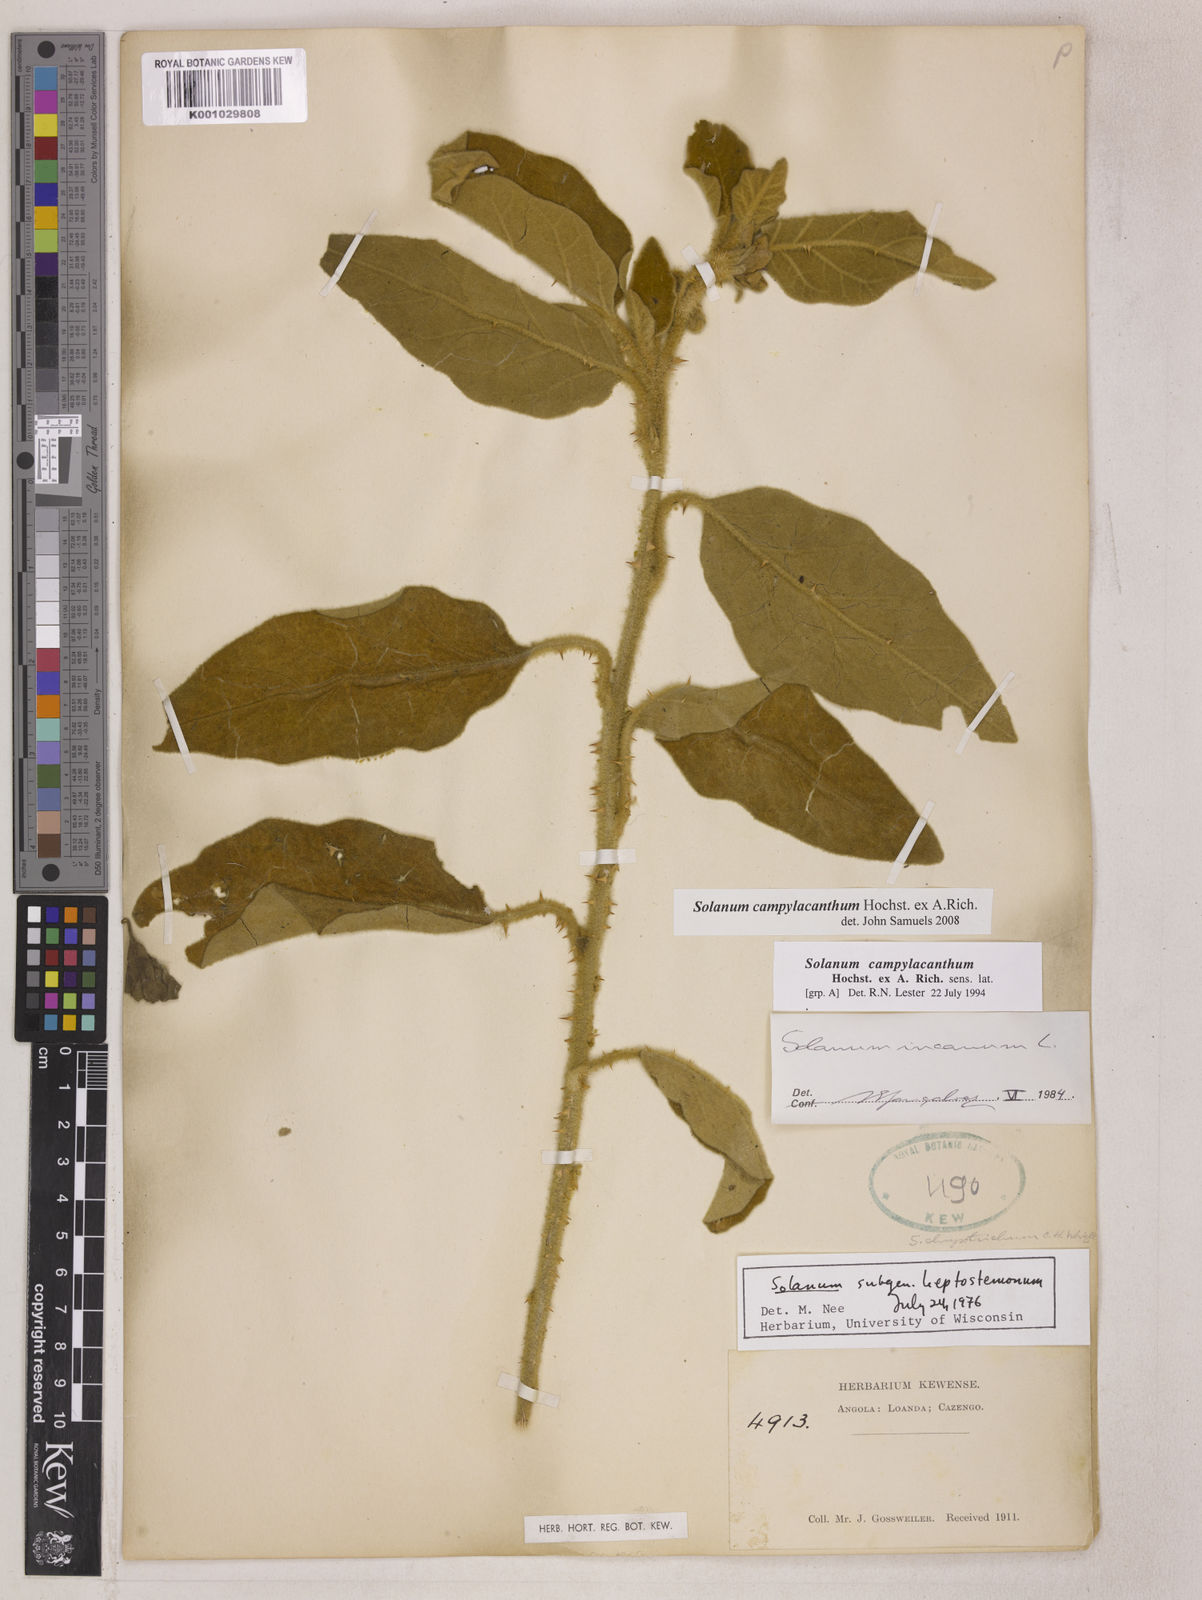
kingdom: Plantae
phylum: Tracheophyta
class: Magnoliopsida
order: Solanales
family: Solanaceae
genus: Solanum
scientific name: Solanum campylacanthum
